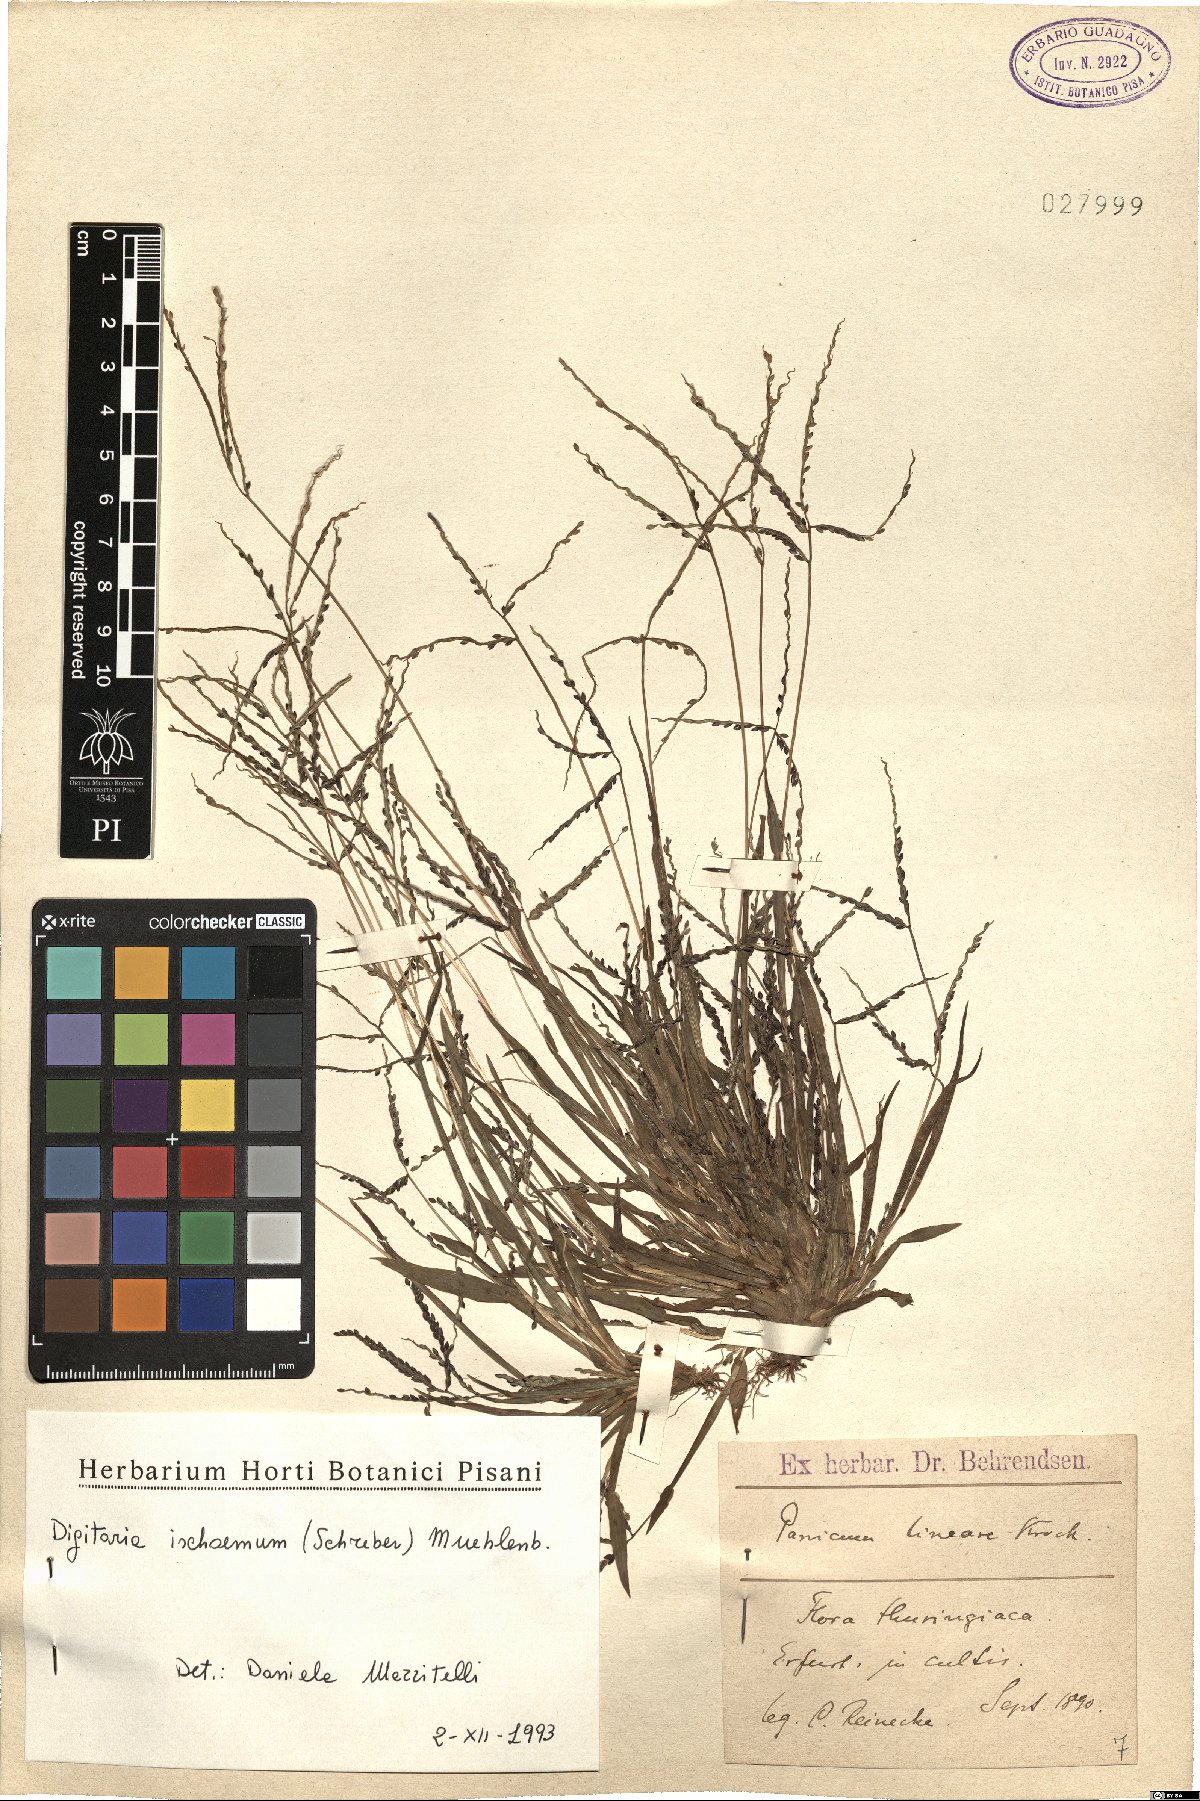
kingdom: Plantae
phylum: Tracheophyta
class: Liliopsida
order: Poales
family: Poaceae
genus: Digitaria
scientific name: Digitaria ischaemum
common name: Smooth crabgrass
